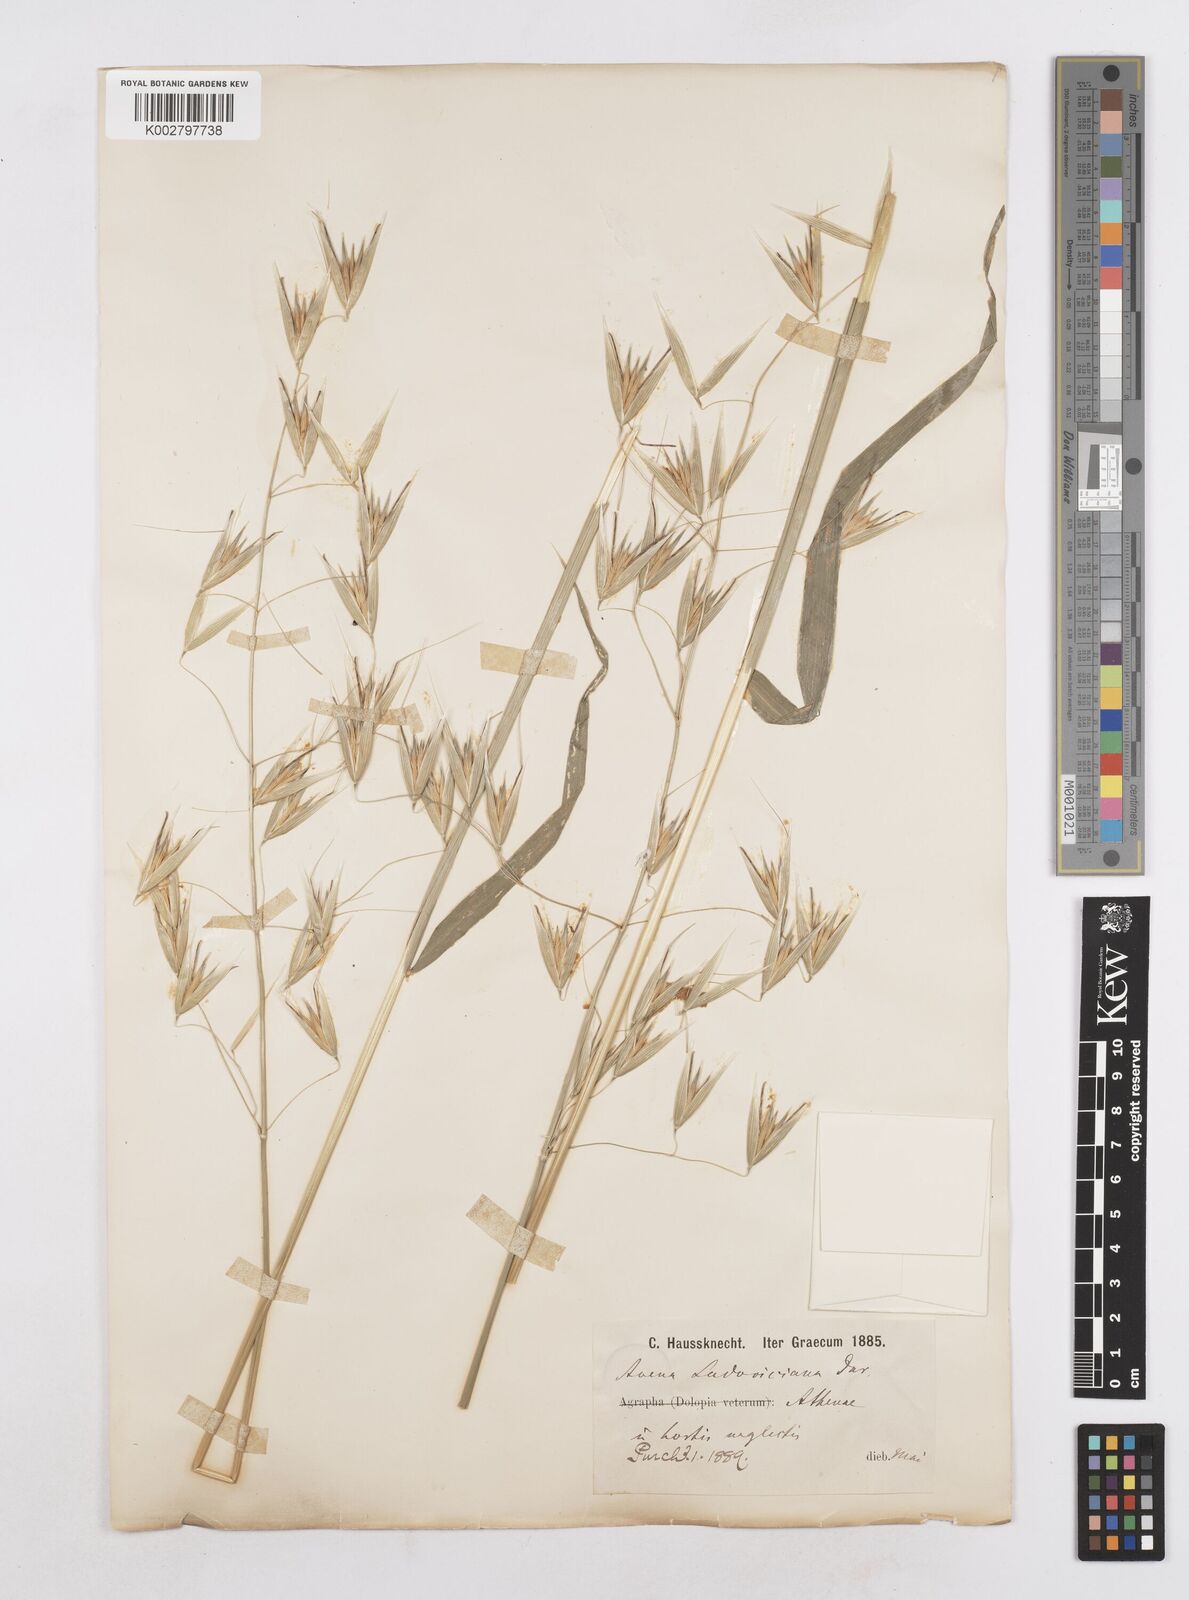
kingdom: Plantae
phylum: Tracheophyta
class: Liliopsida
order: Poales
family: Poaceae
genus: Avena
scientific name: Avena sterilis
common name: Animated oat
